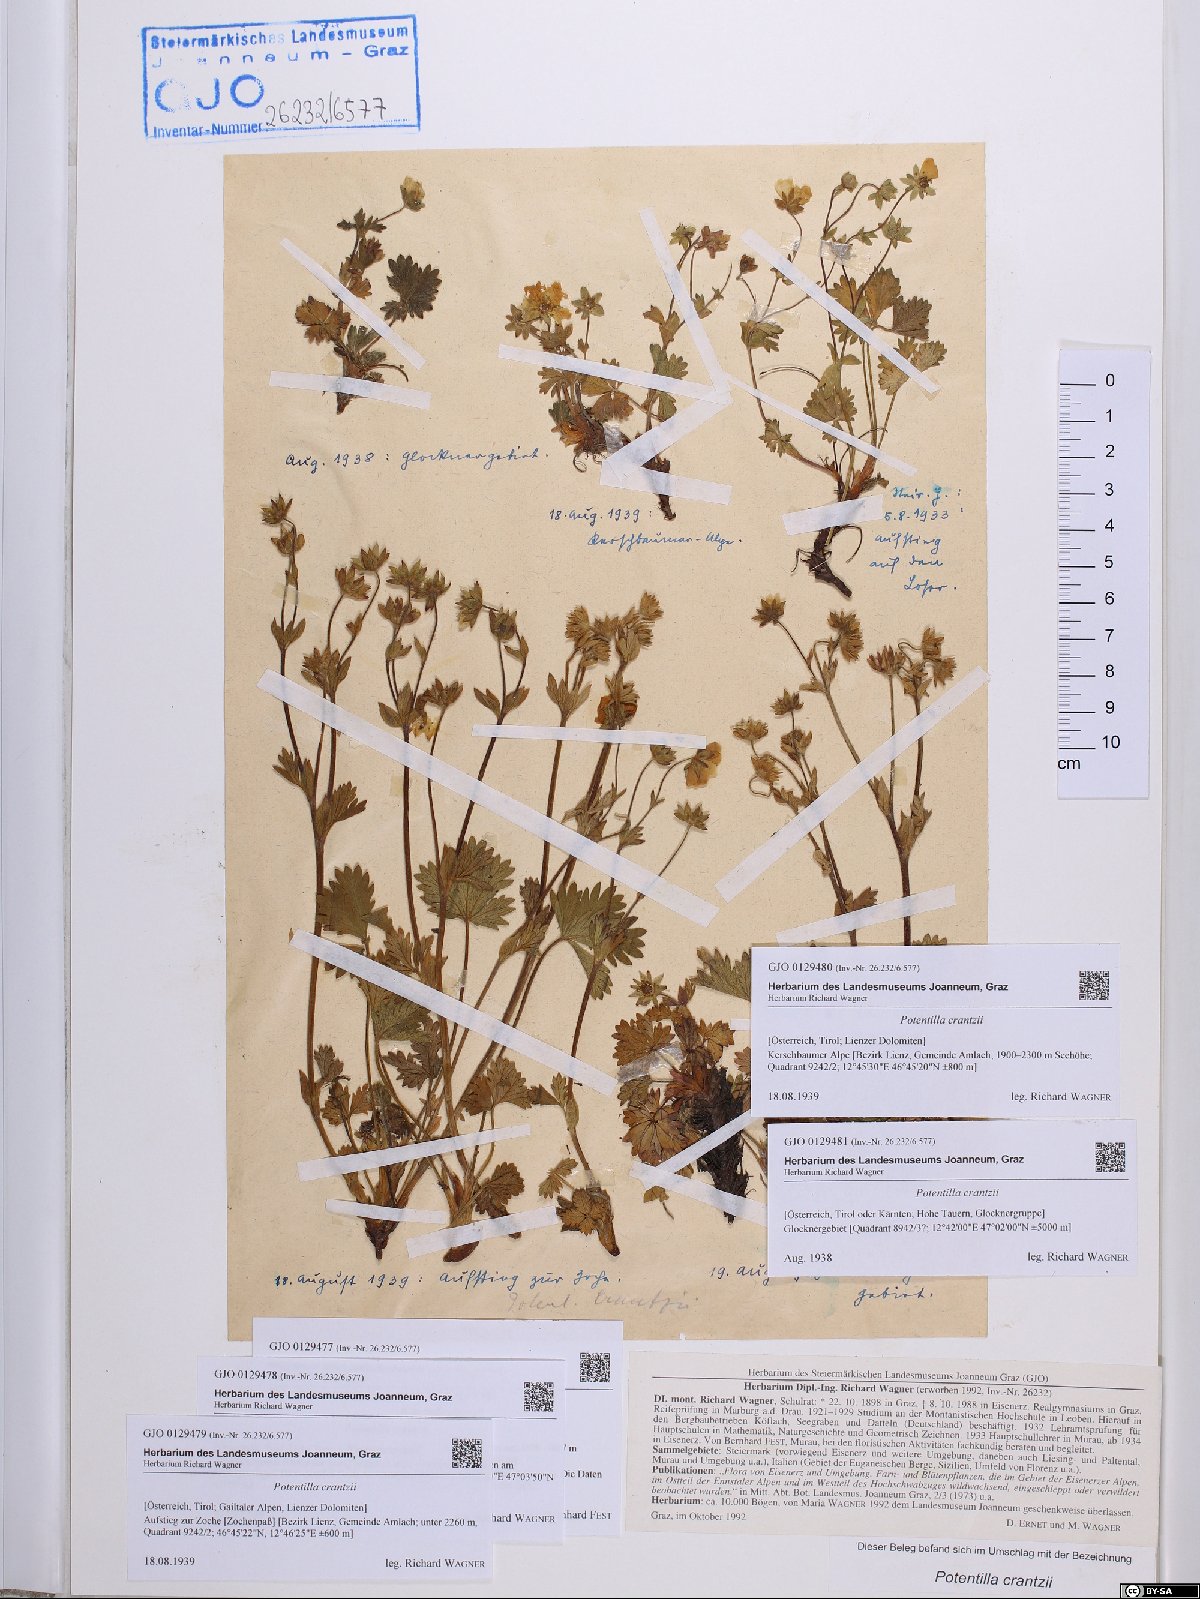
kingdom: Plantae
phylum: Tracheophyta
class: Magnoliopsida
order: Rosales
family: Rosaceae
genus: Potentilla
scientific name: Potentilla crantzii
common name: Alpine cinquefoil
